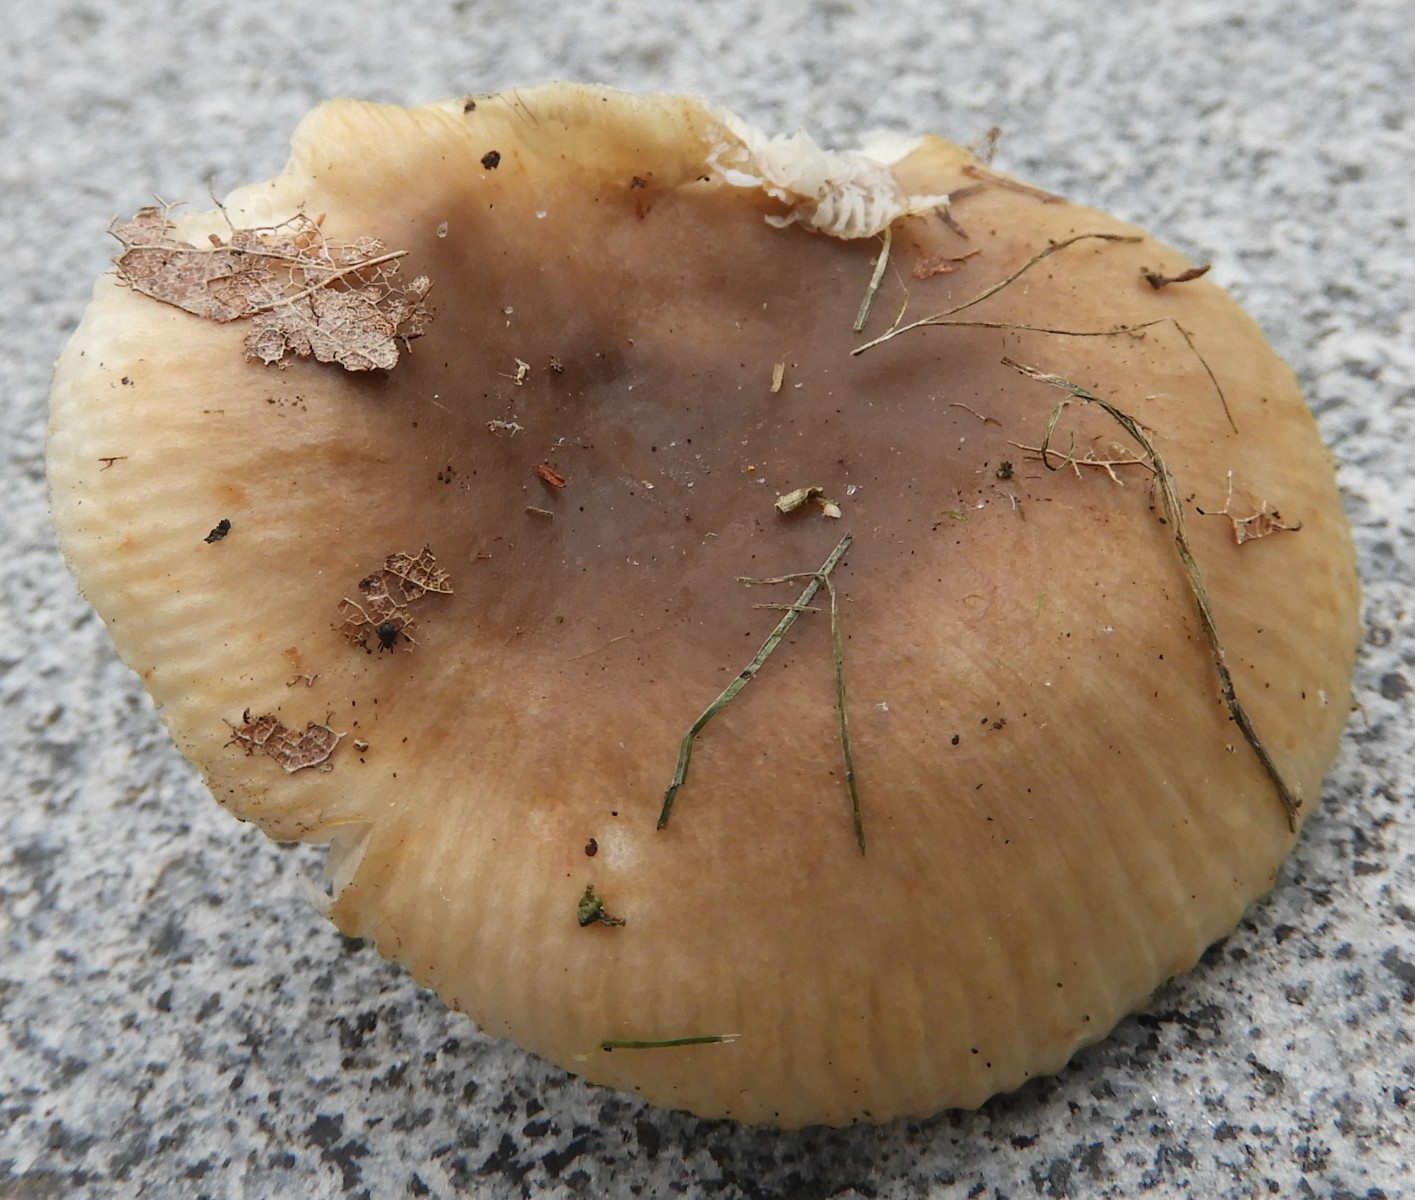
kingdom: Fungi
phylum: Basidiomycota
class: Agaricomycetes
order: Russulales
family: Russulaceae
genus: Russula
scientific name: Russula recondita
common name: mild kam-skørhat
